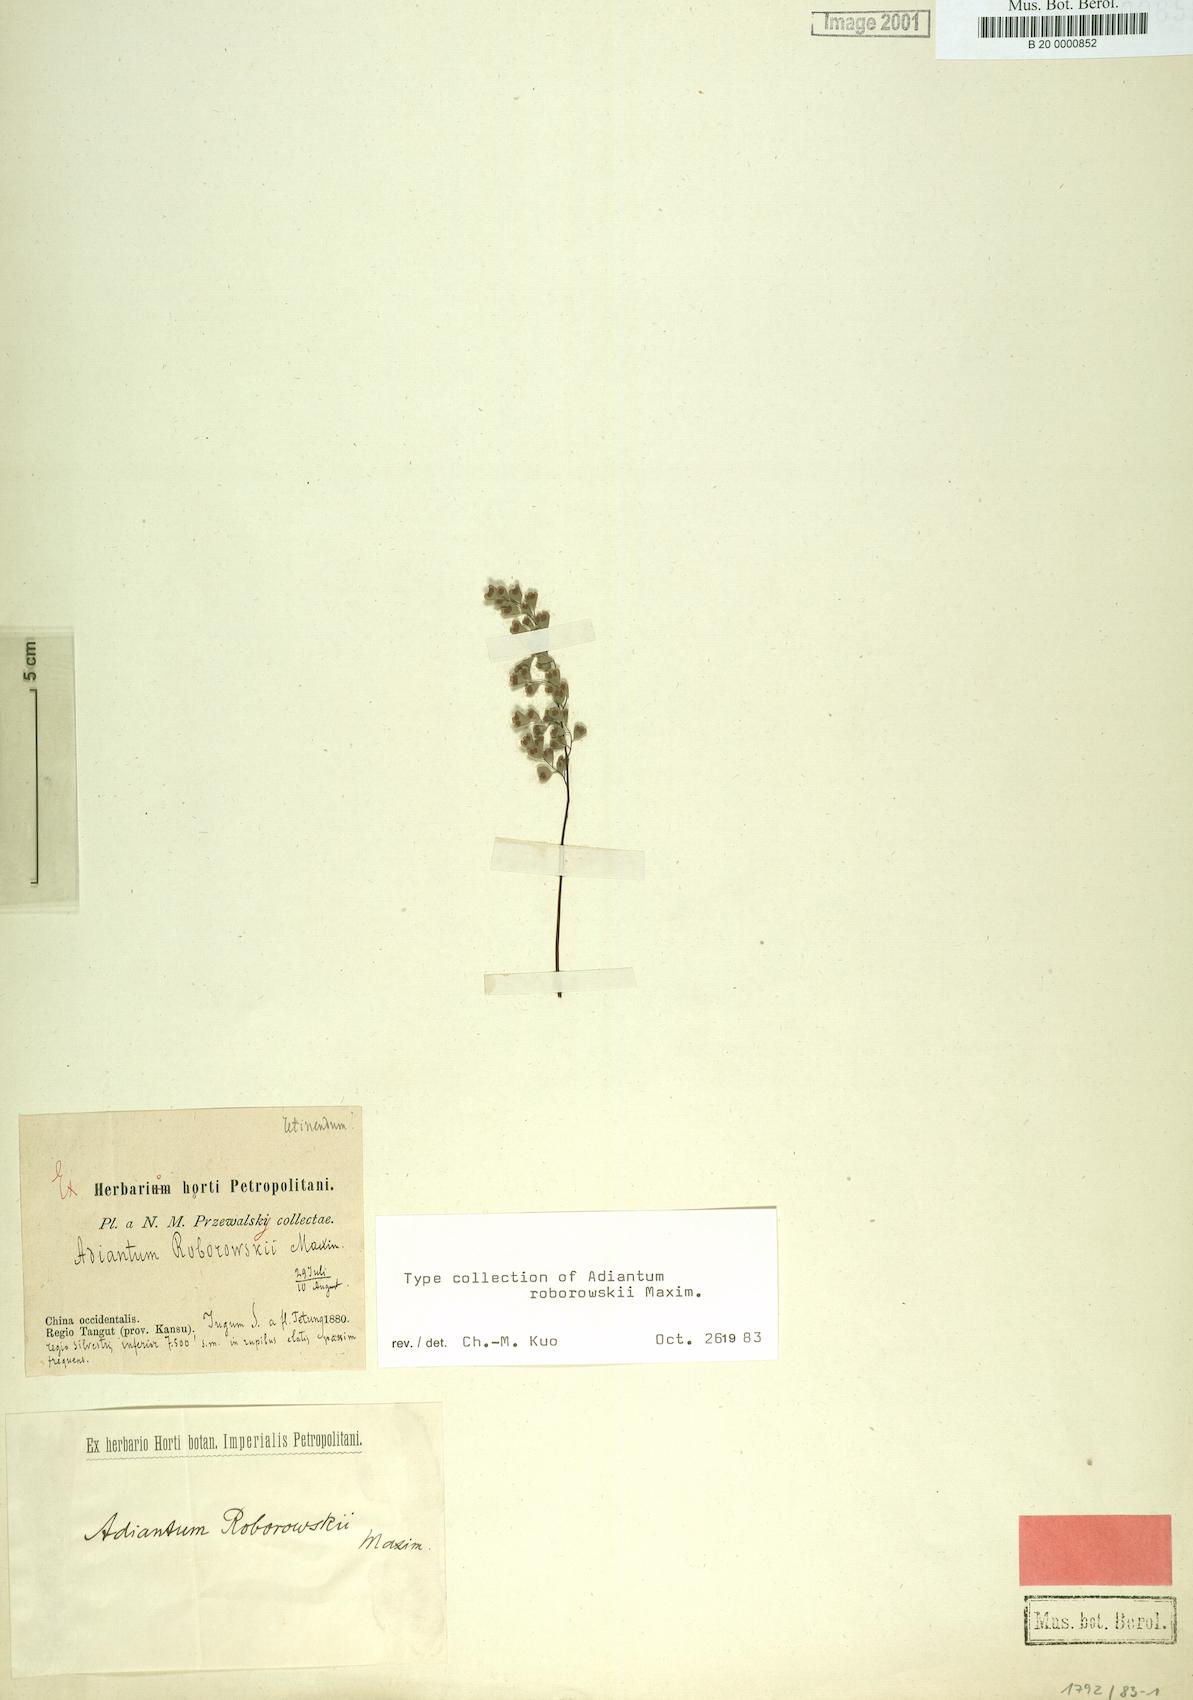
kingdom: Plantae
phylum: Tracheophyta
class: Polypodiopsida
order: Polypodiales
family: Pteridaceae
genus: Adiantum
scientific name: Adiantum roborowskii
